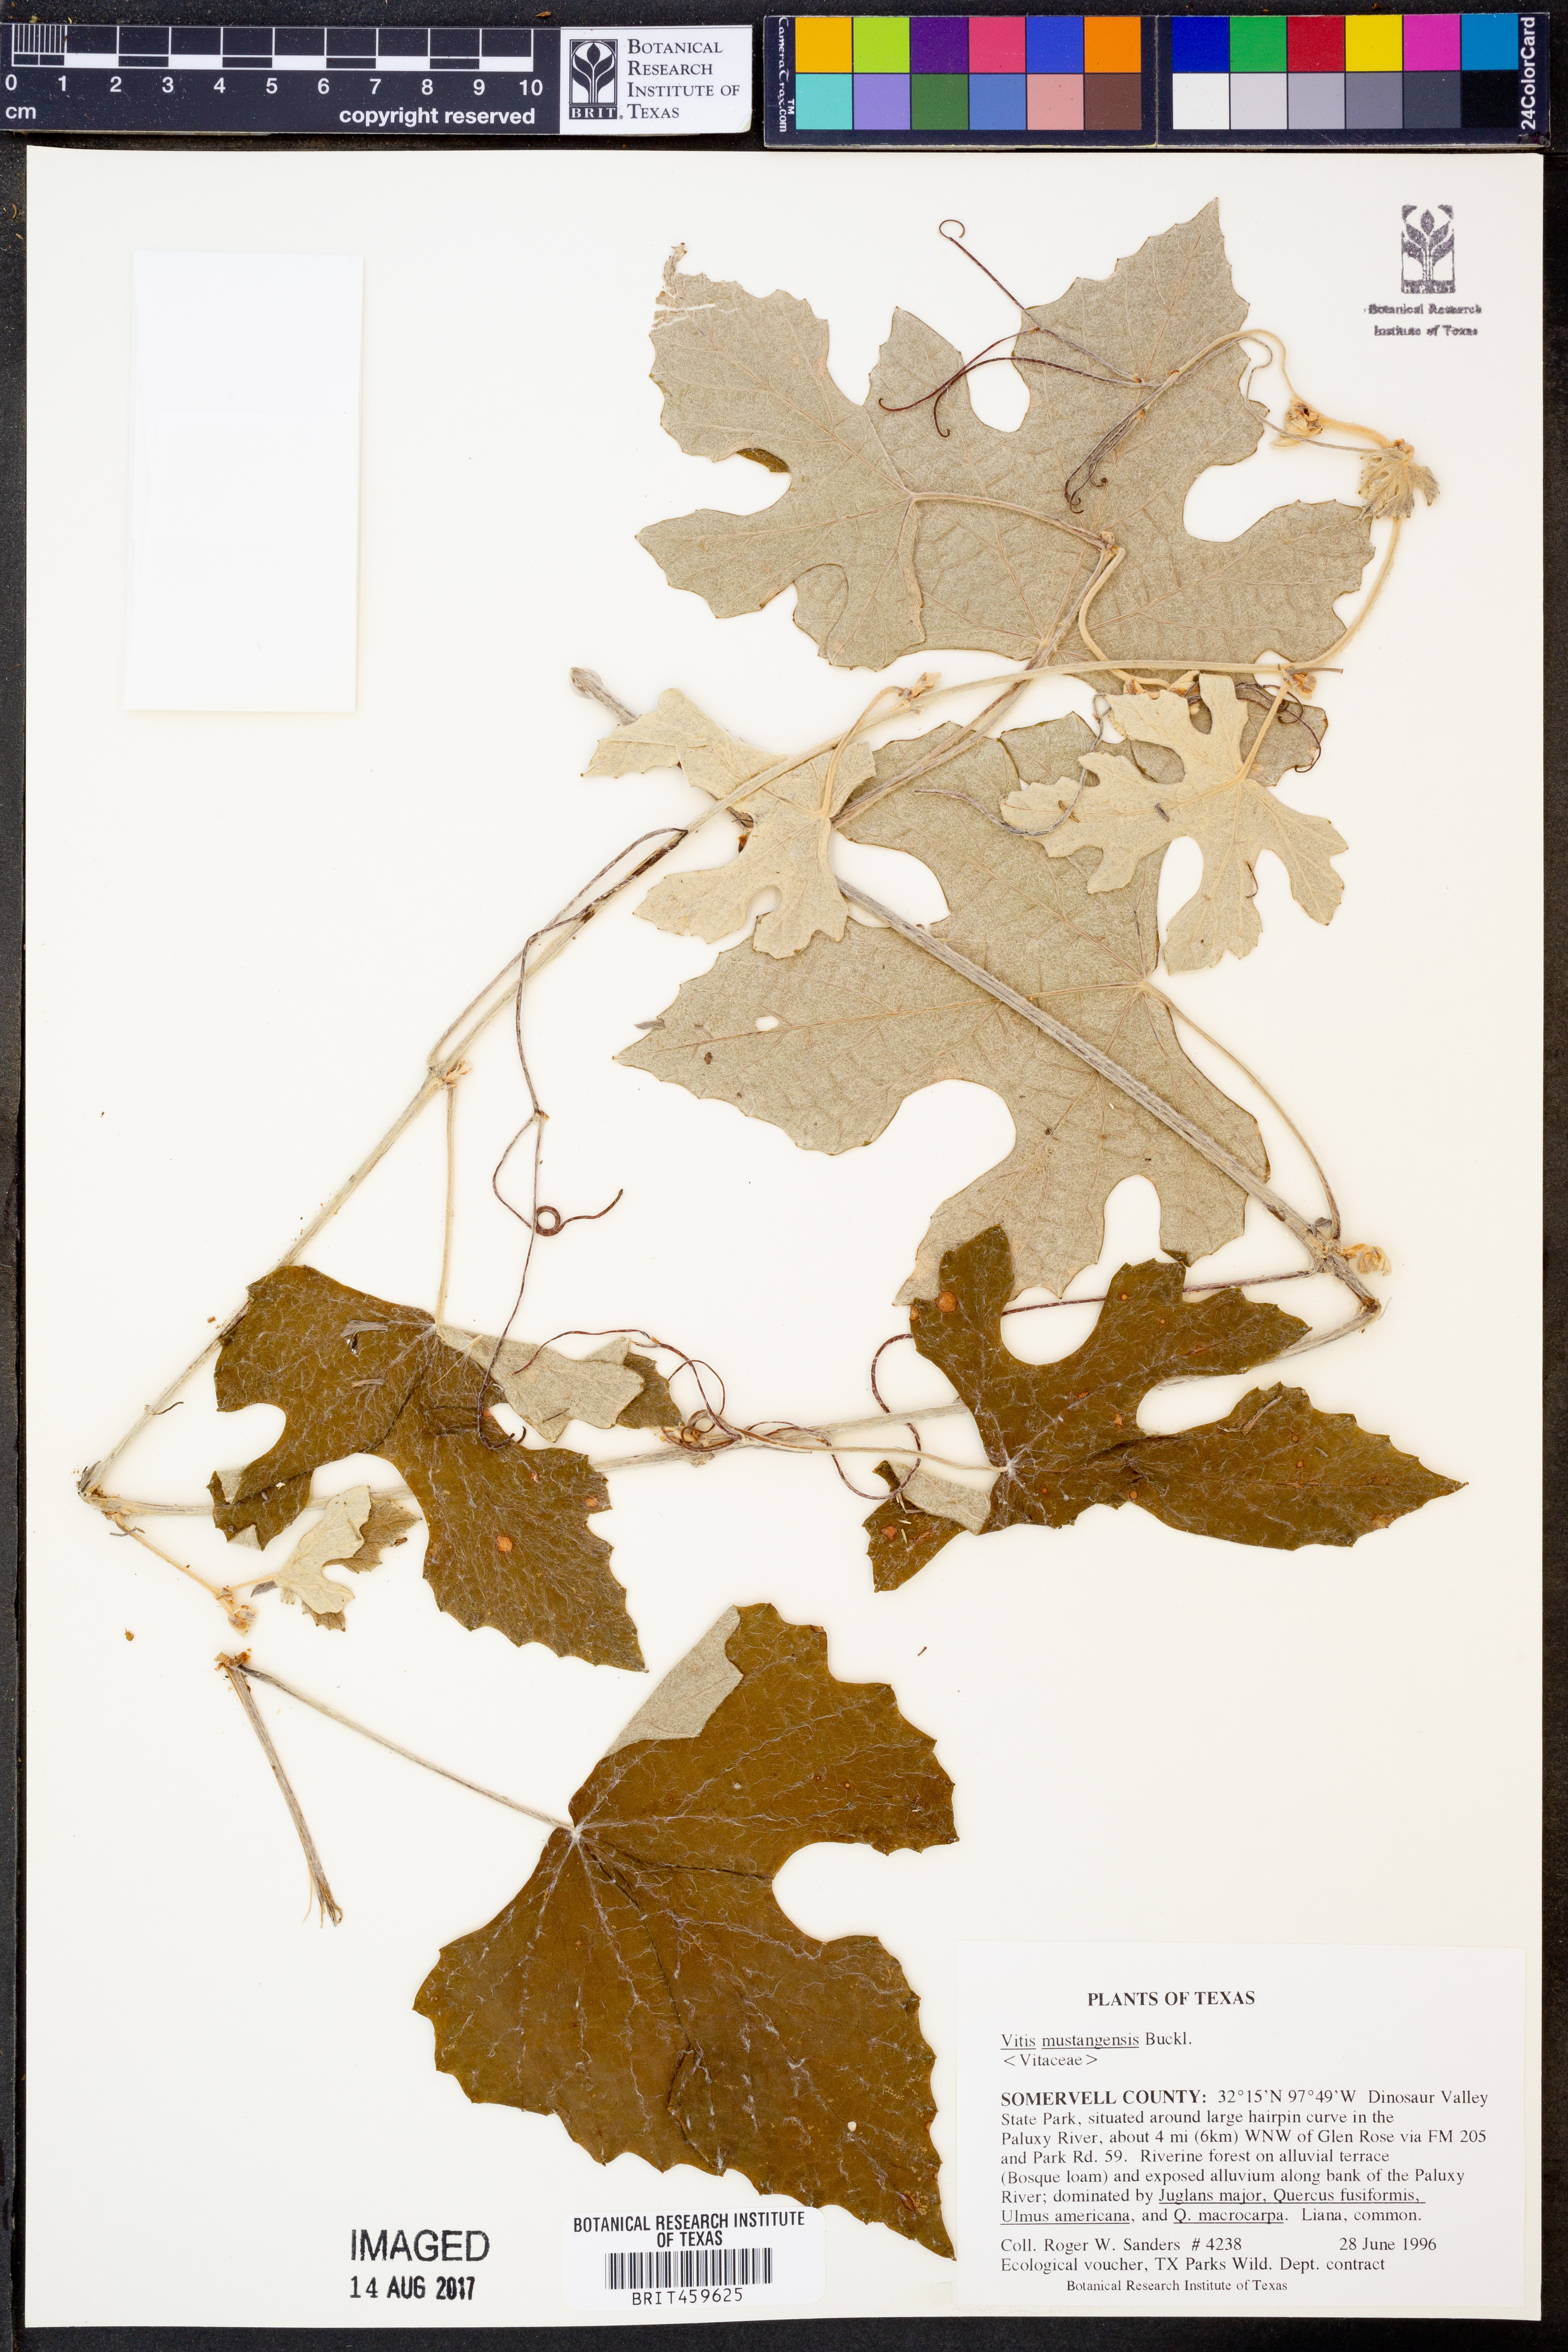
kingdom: Plantae
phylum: Tracheophyta
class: Magnoliopsida
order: Vitales
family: Vitaceae
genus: Vitis
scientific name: Vitis mustangensis
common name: Mustang grape
